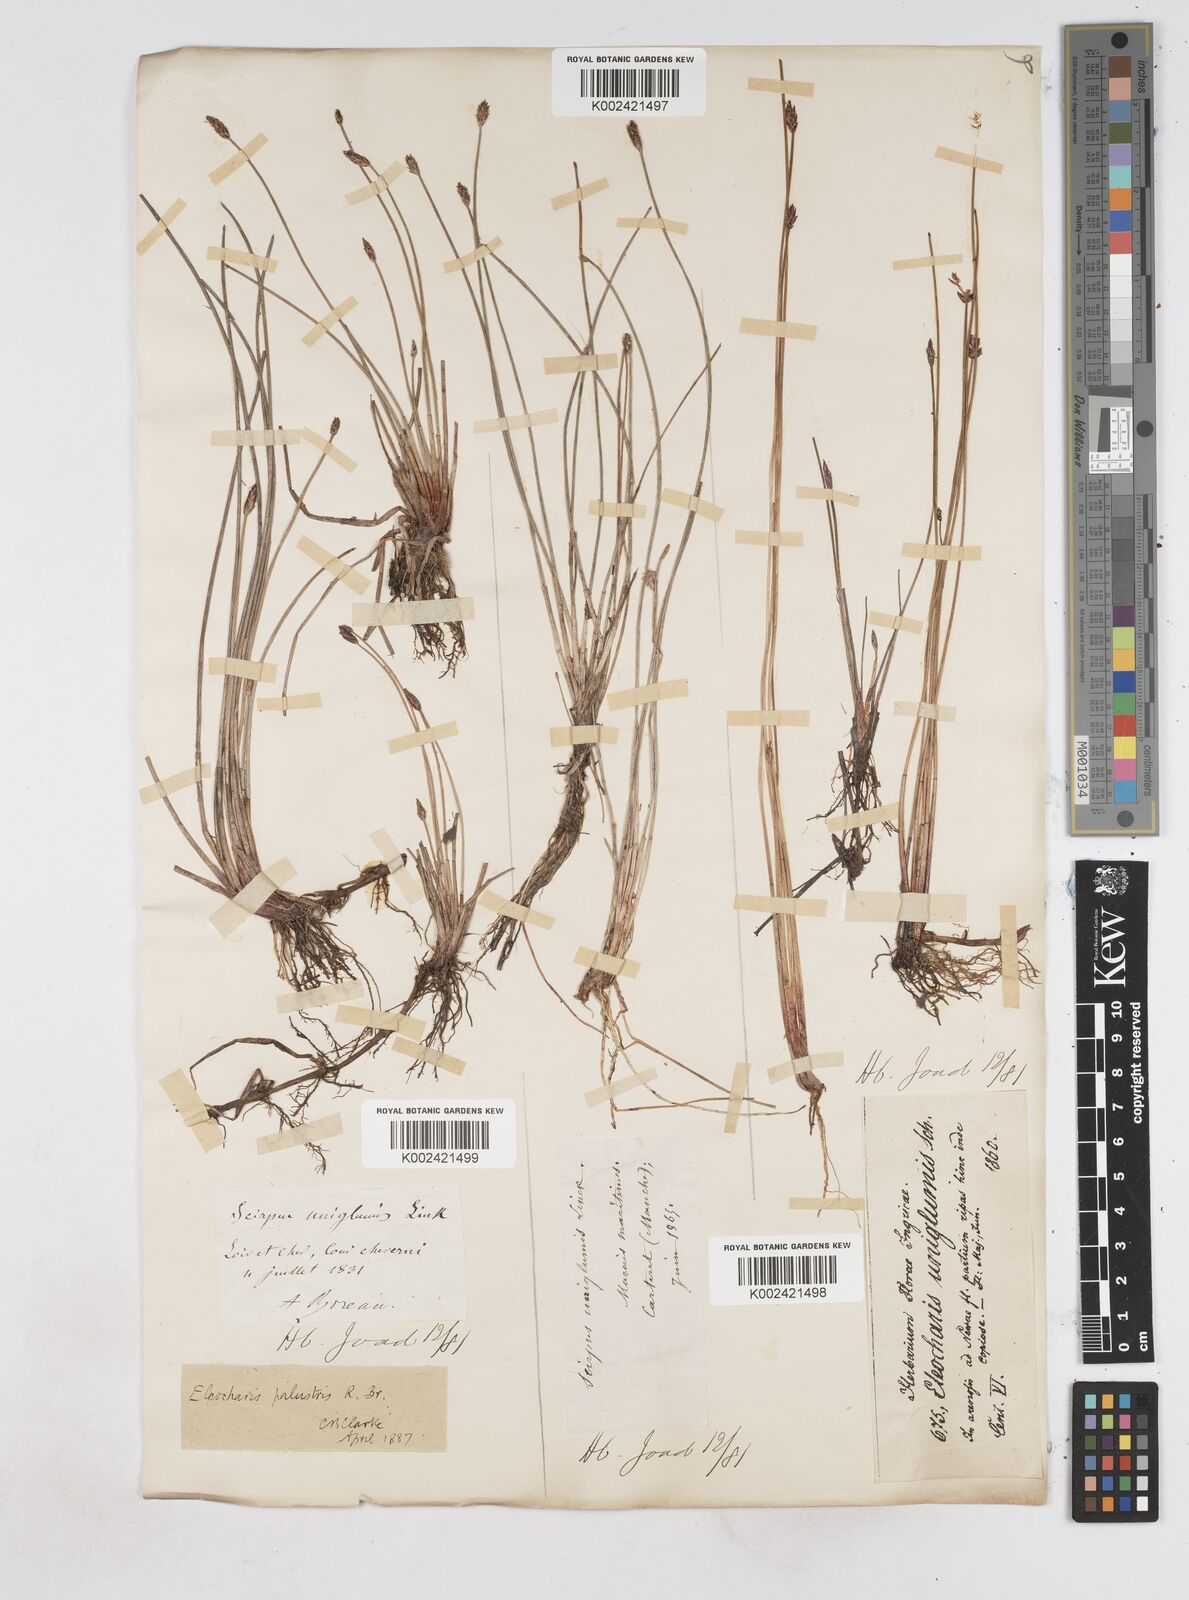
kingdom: Plantae
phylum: Tracheophyta
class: Liliopsida
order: Poales
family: Cyperaceae
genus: Eleocharis
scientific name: Eleocharis uniglumis
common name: Slender spike-rush
